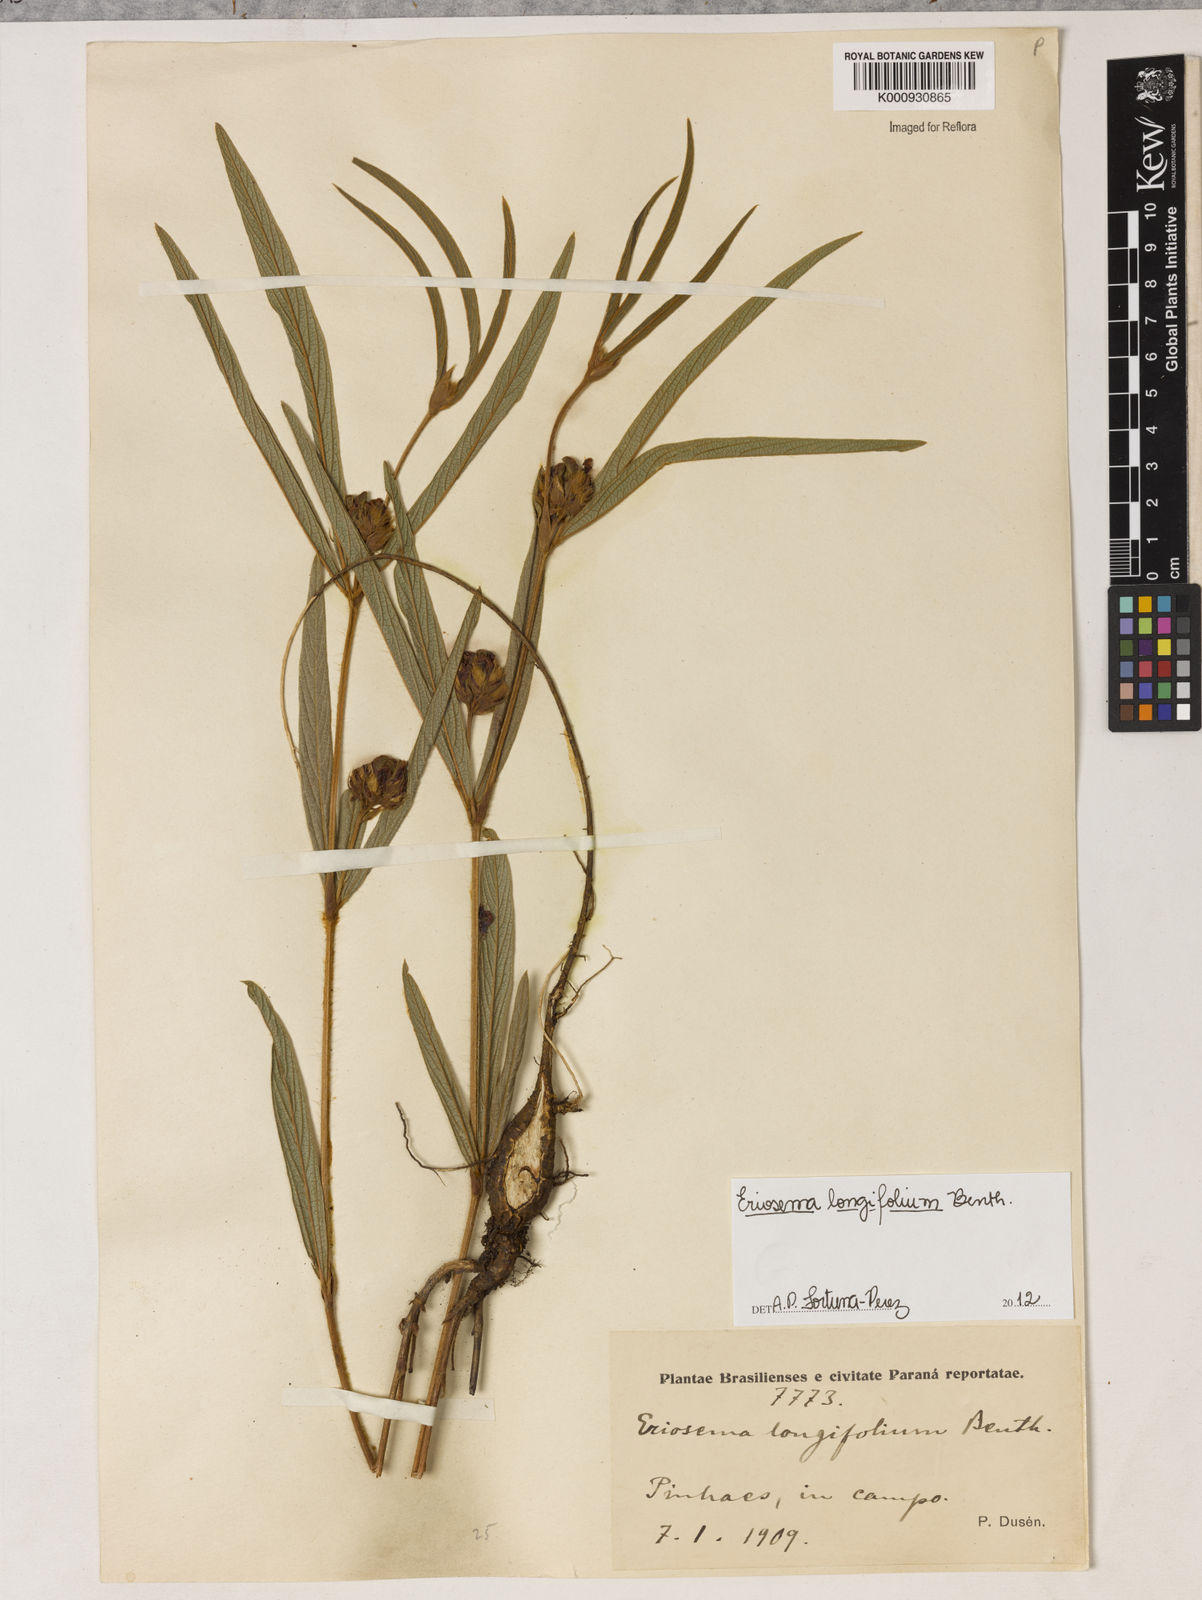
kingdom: Plantae
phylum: Tracheophyta
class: Magnoliopsida
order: Fabales
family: Fabaceae
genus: Eriosema
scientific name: Eriosema longifolium
